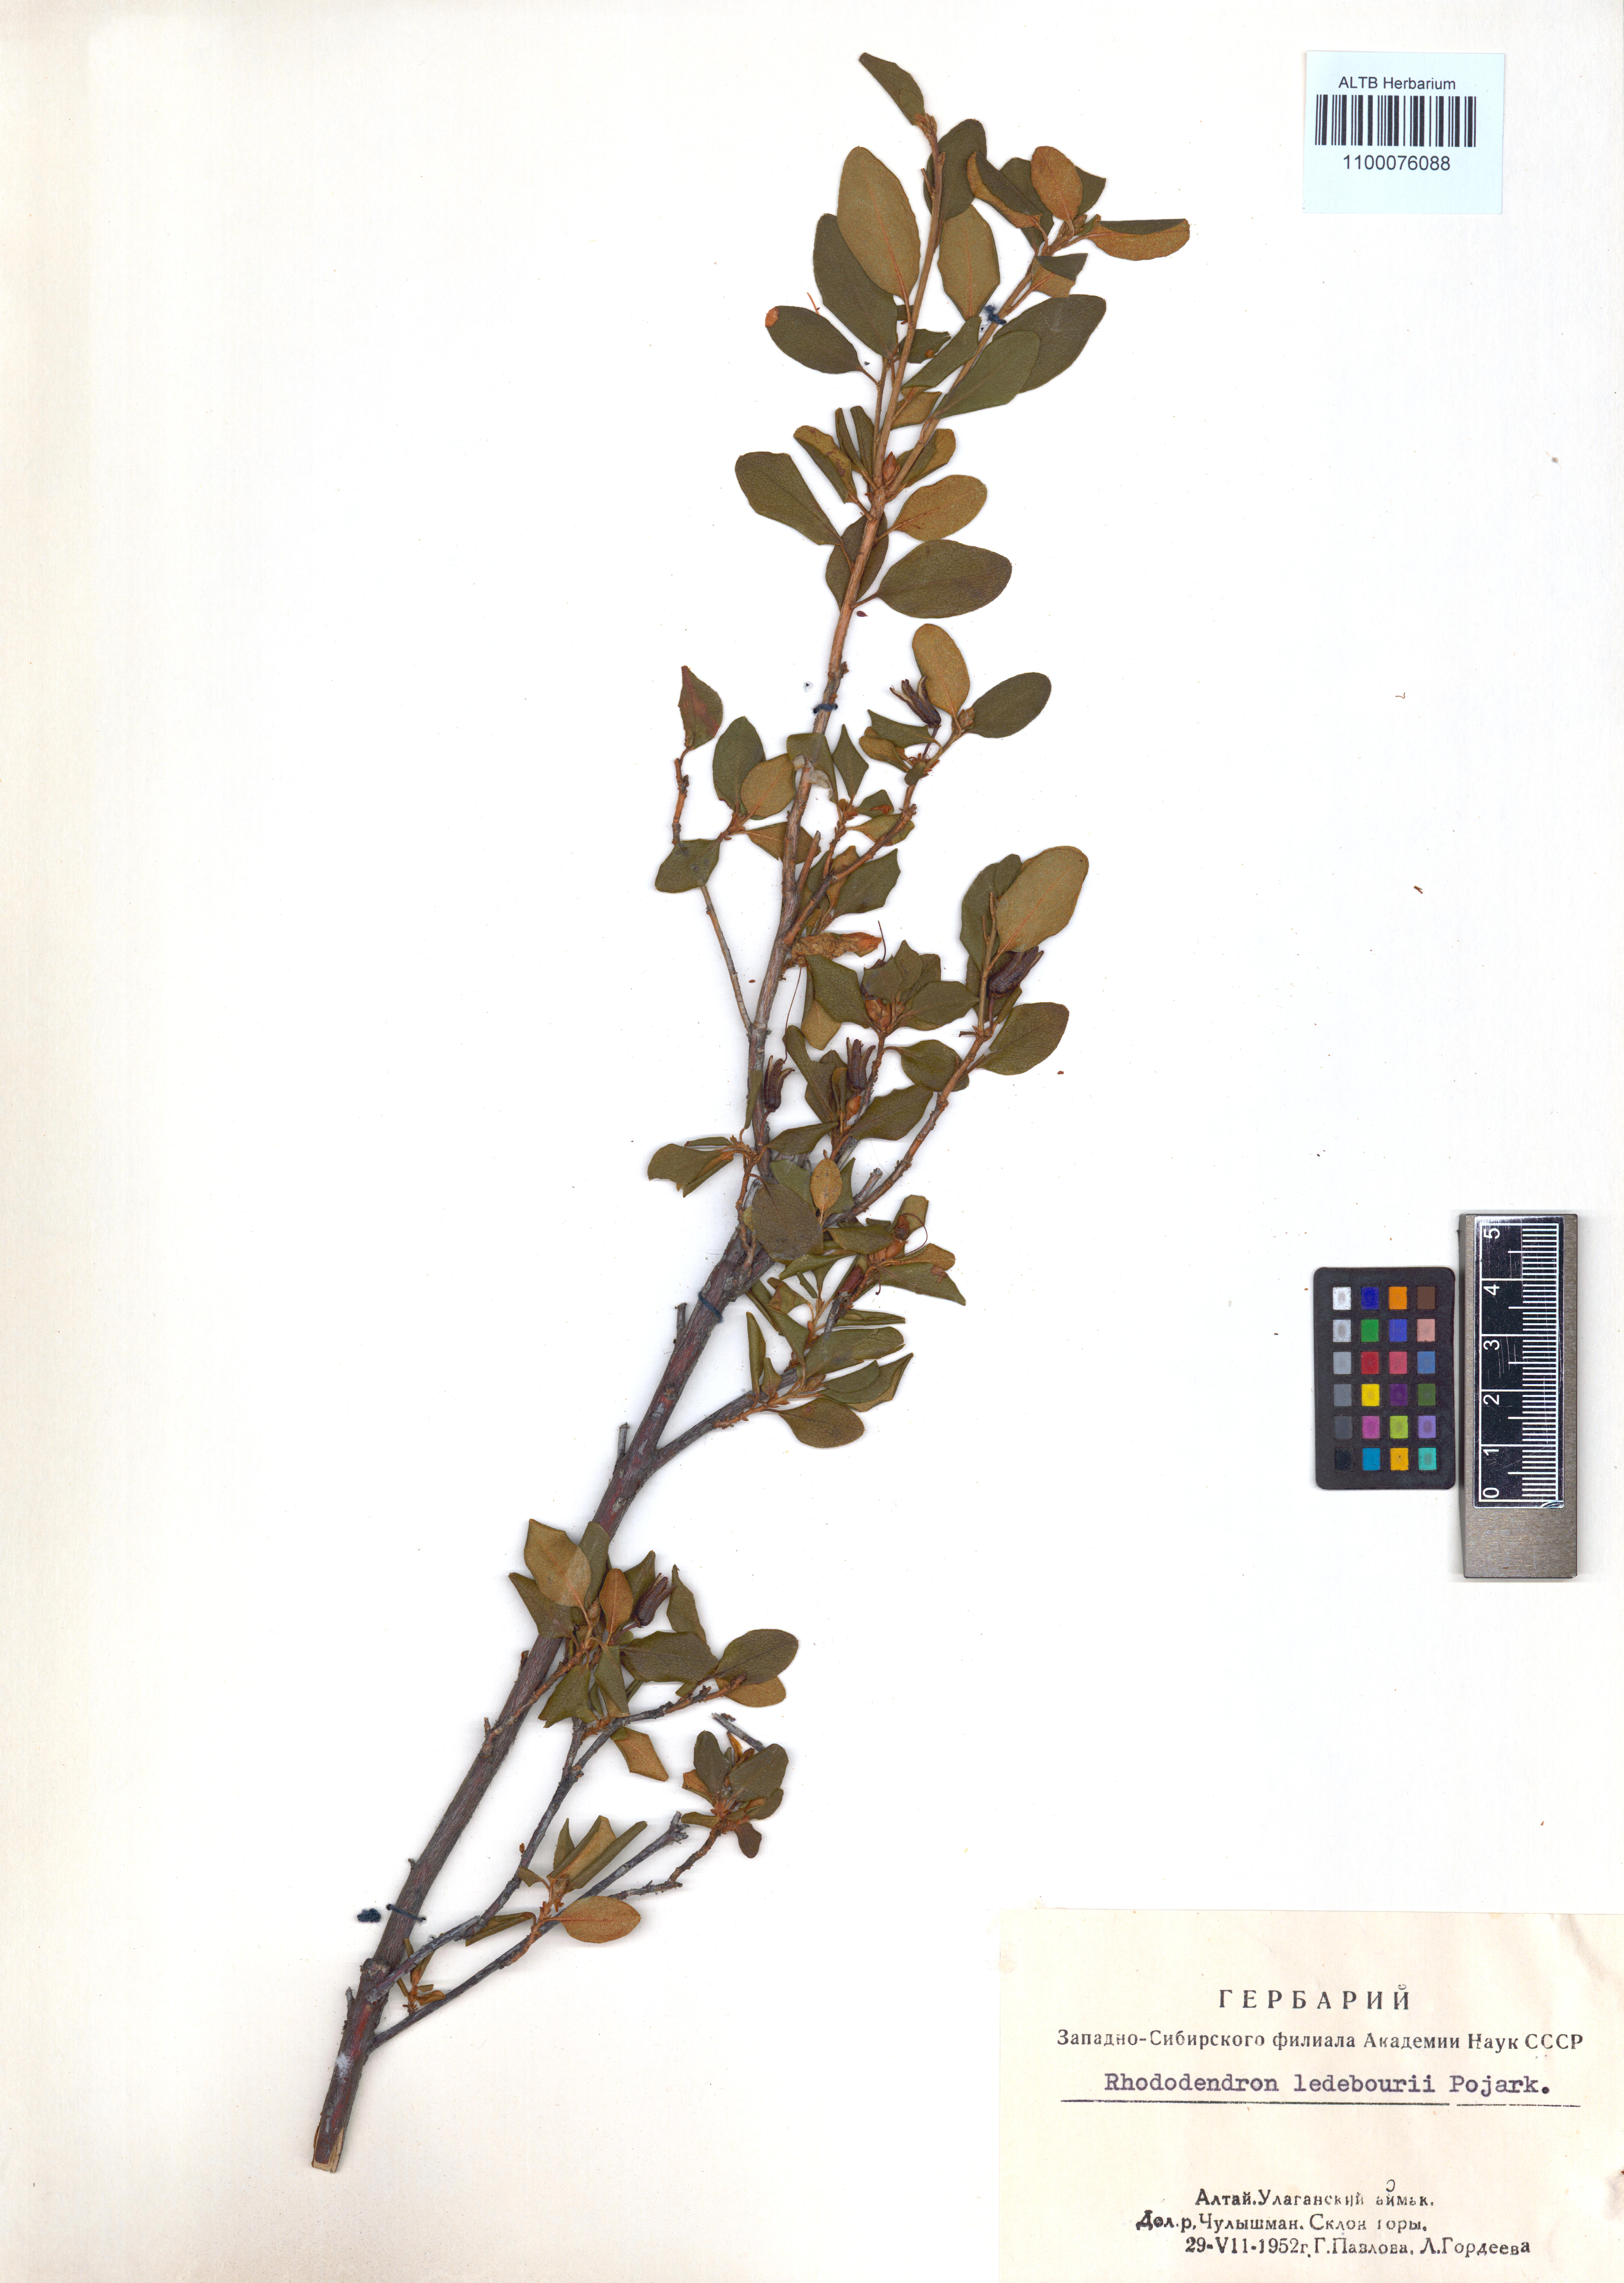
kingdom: Plantae
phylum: Tracheophyta
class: Magnoliopsida
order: Ericales
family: Ericaceae
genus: Rhododendron
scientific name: Rhododendron dauricum
